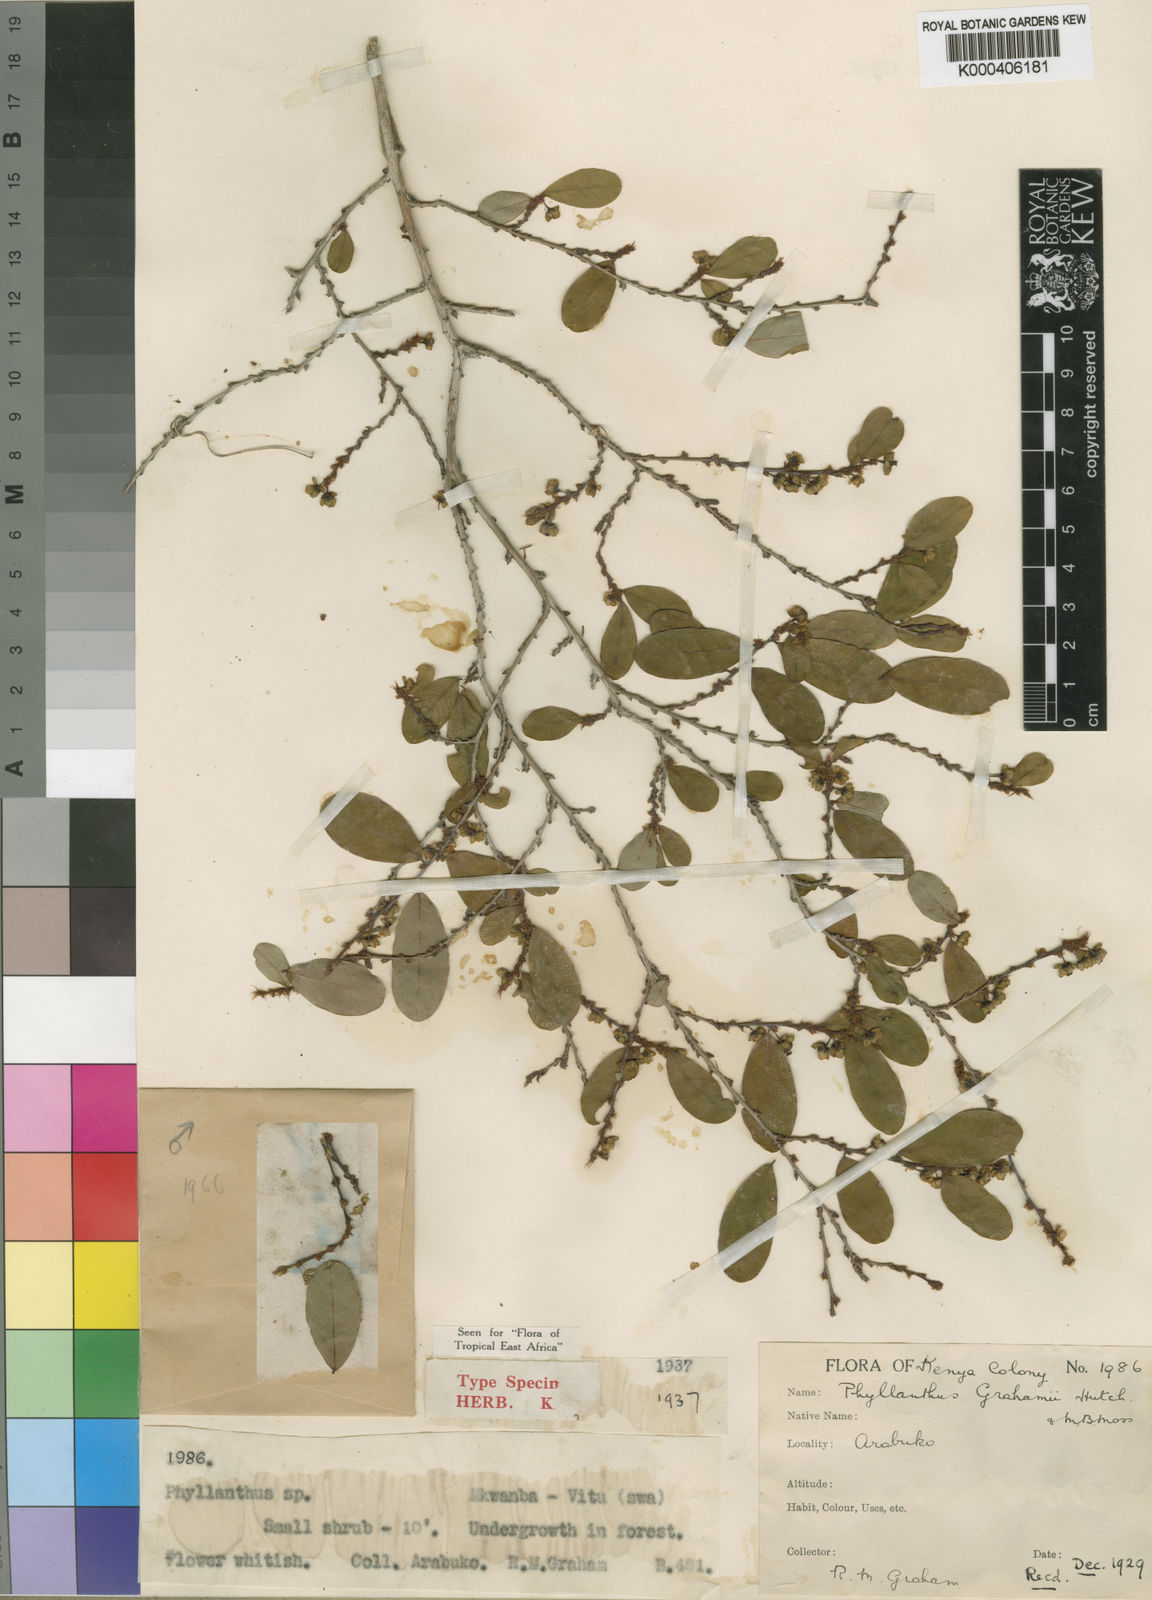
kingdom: Plantae
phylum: Tracheophyta
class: Magnoliopsida
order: Malpighiales
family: Phyllanthaceae
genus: Phyllanthus
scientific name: Phyllanthus welwitschianus
